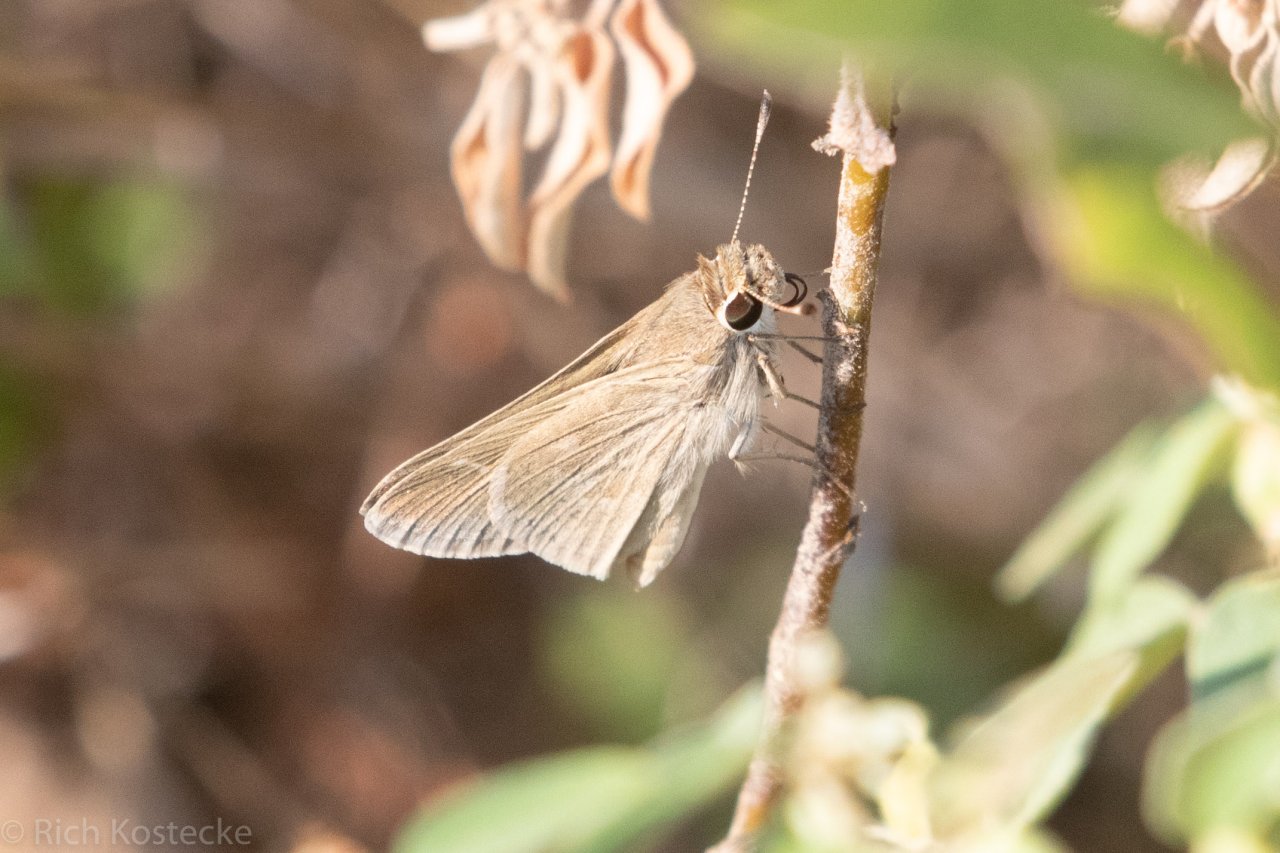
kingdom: Animalia
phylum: Arthropoda
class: Insecta
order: Lepidoptera
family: Hesperiidae
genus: Lerodea
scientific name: Lerodea eufala
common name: Eufala Skipper
